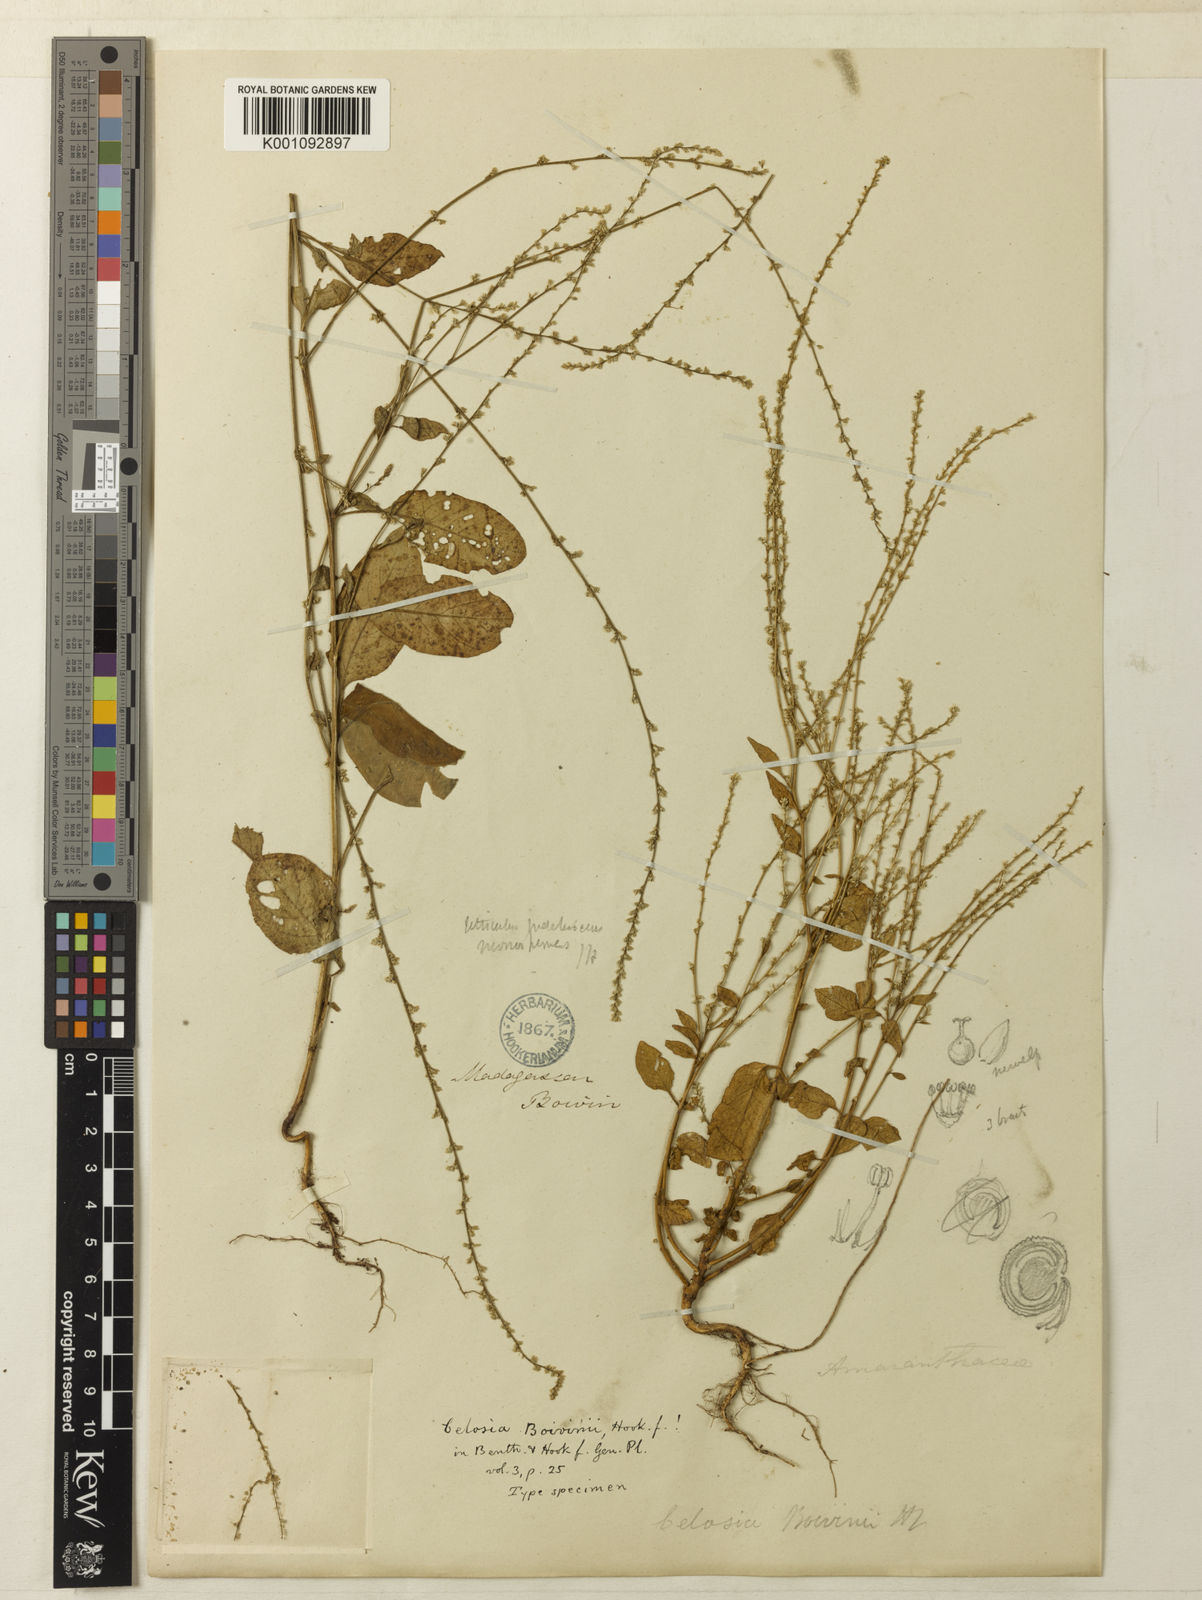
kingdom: Plantae
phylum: Tracheophyta
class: Magnoliopsida
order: Caryophyllales
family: Amaranthaceae
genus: Lagrezia
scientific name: Lagrezia boivinii
